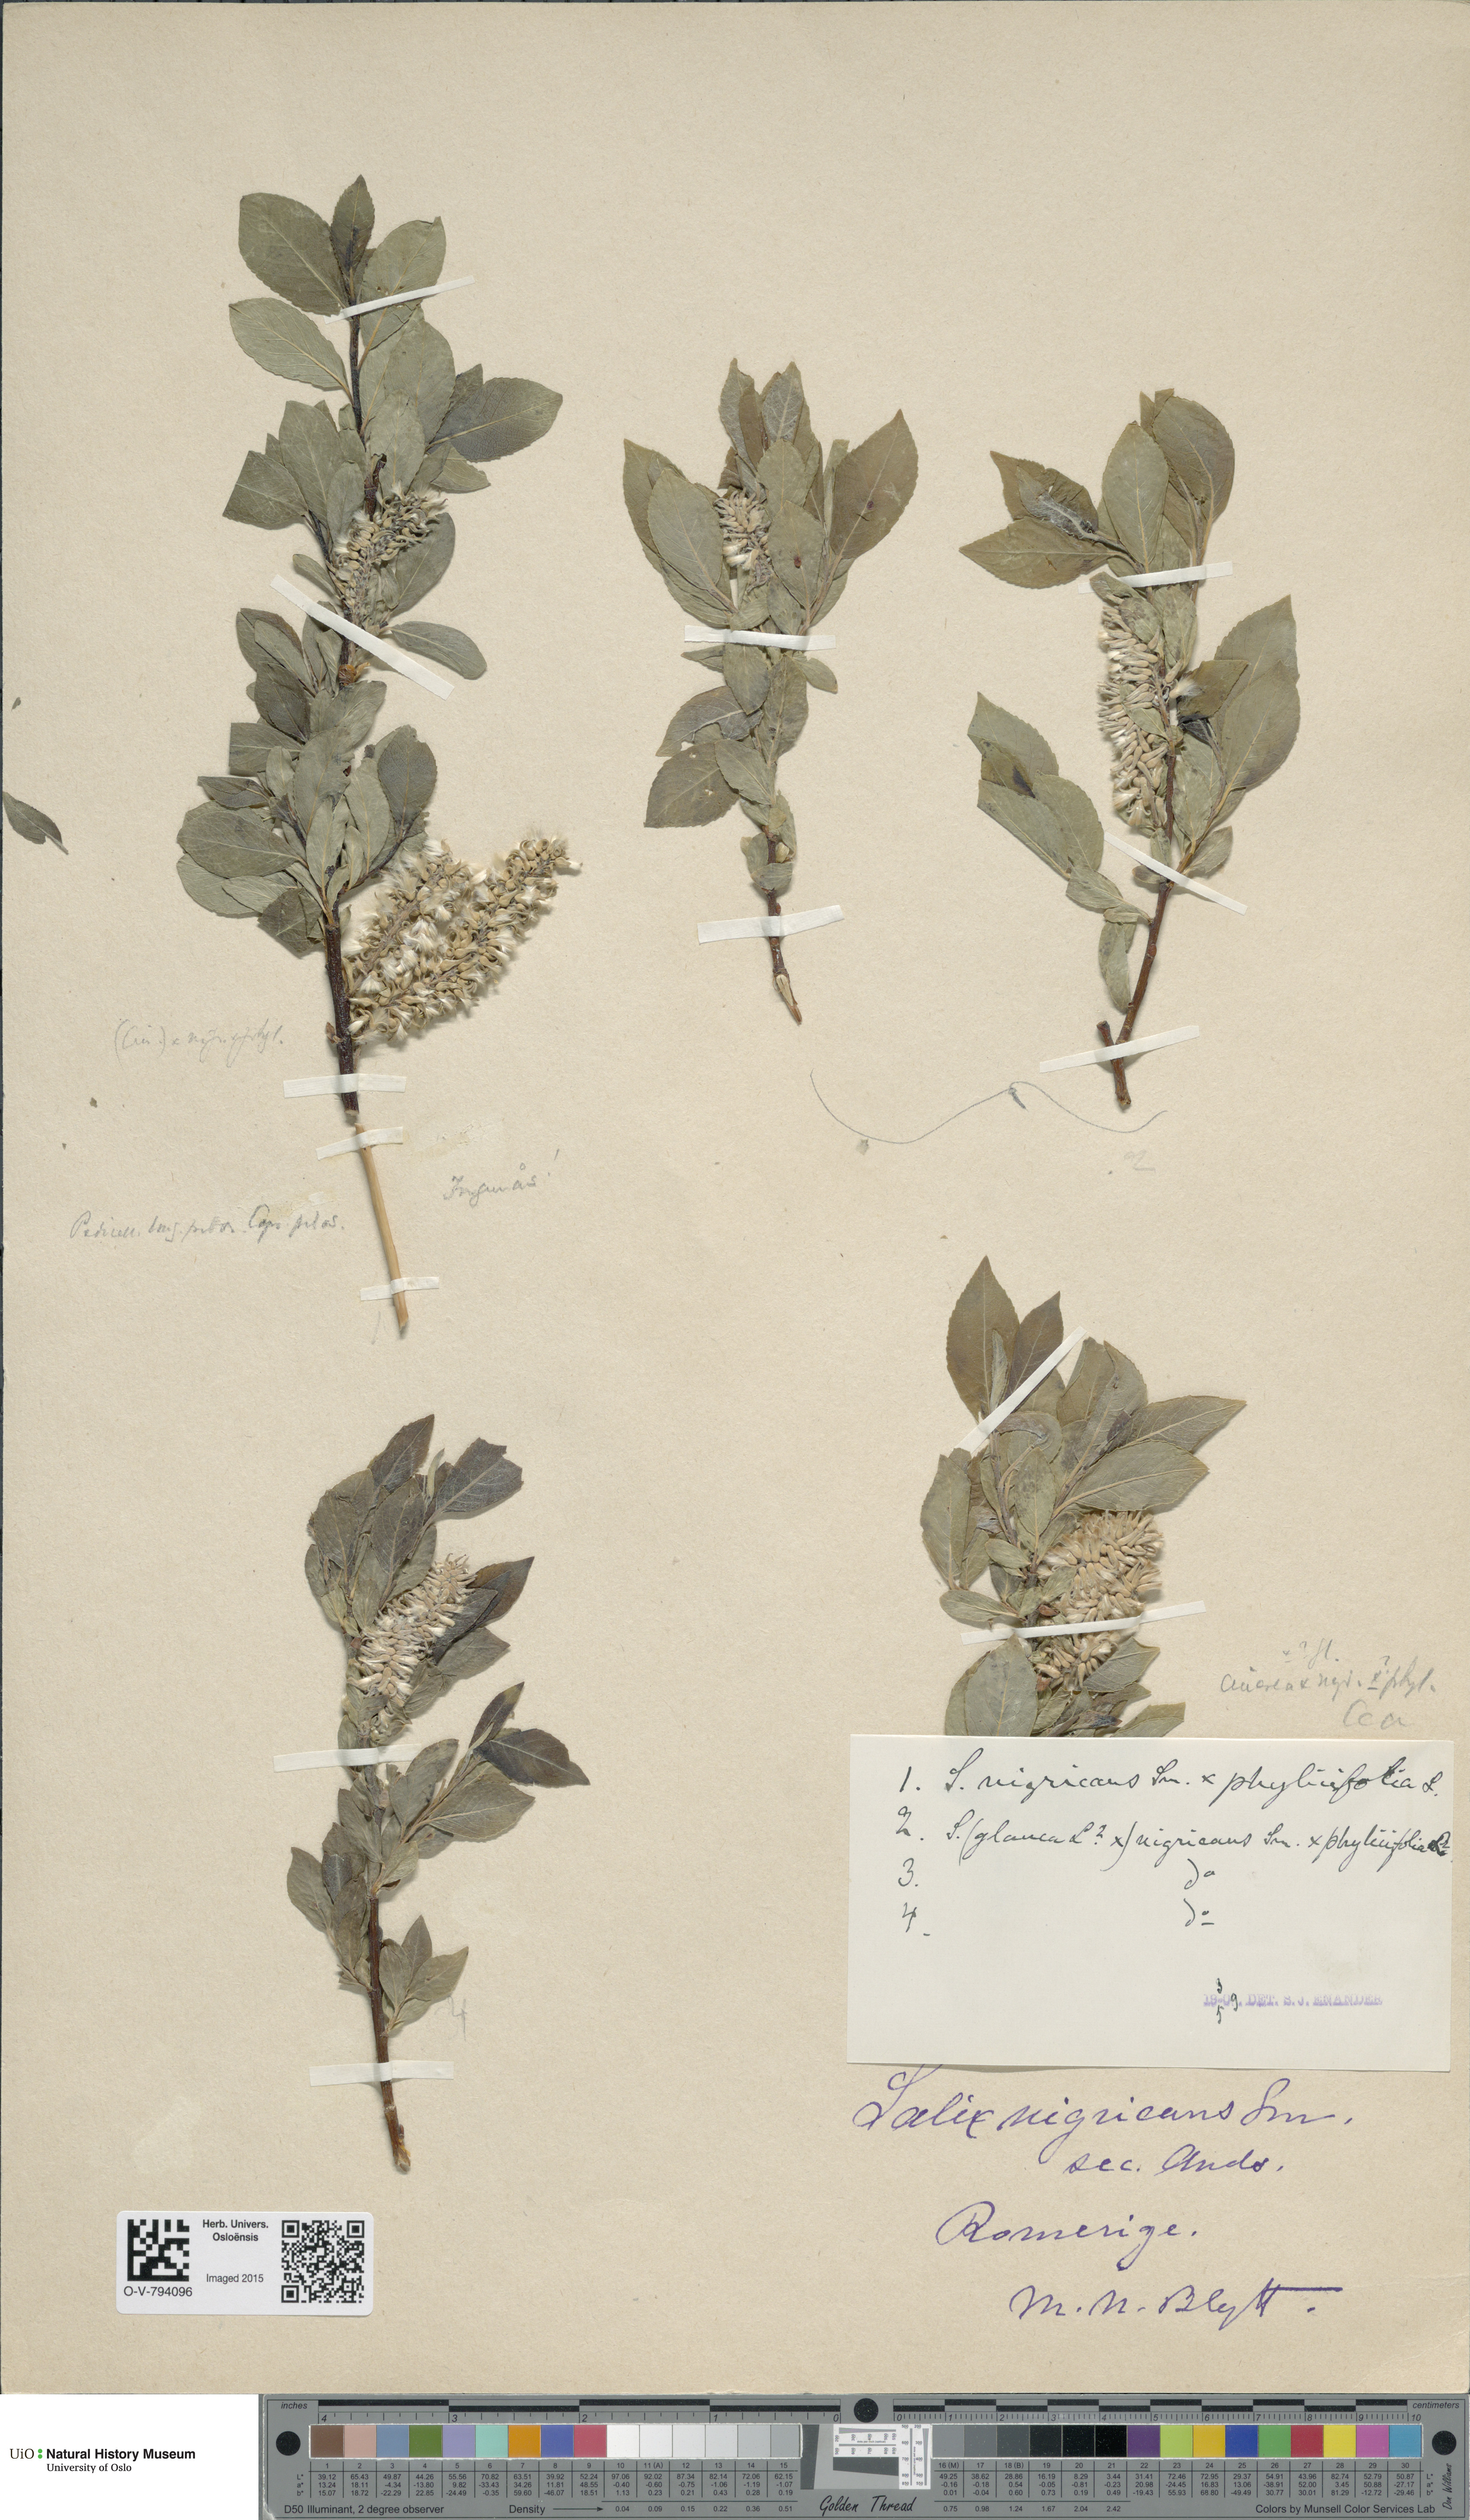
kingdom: Plantae
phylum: Tracheophyta
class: Magnoliopsida
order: Malpighiales
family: Salicaceae
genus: Salix
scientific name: Salix
